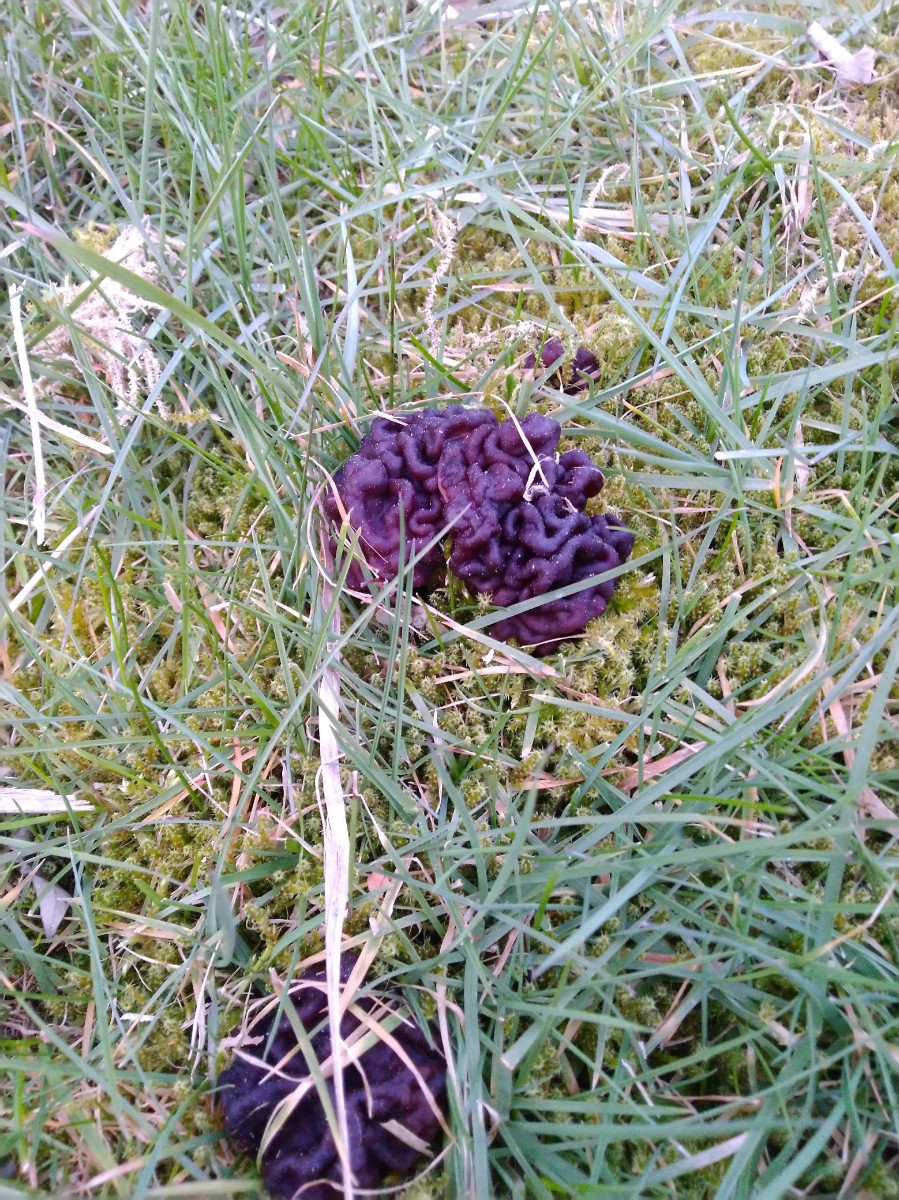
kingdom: Fungi
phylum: Ascomycota
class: Pezizomycetes
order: Pezizales
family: Discinaceae
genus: Gyromitra
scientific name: Gyromitra esculenta
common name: ægte stenmorkel
